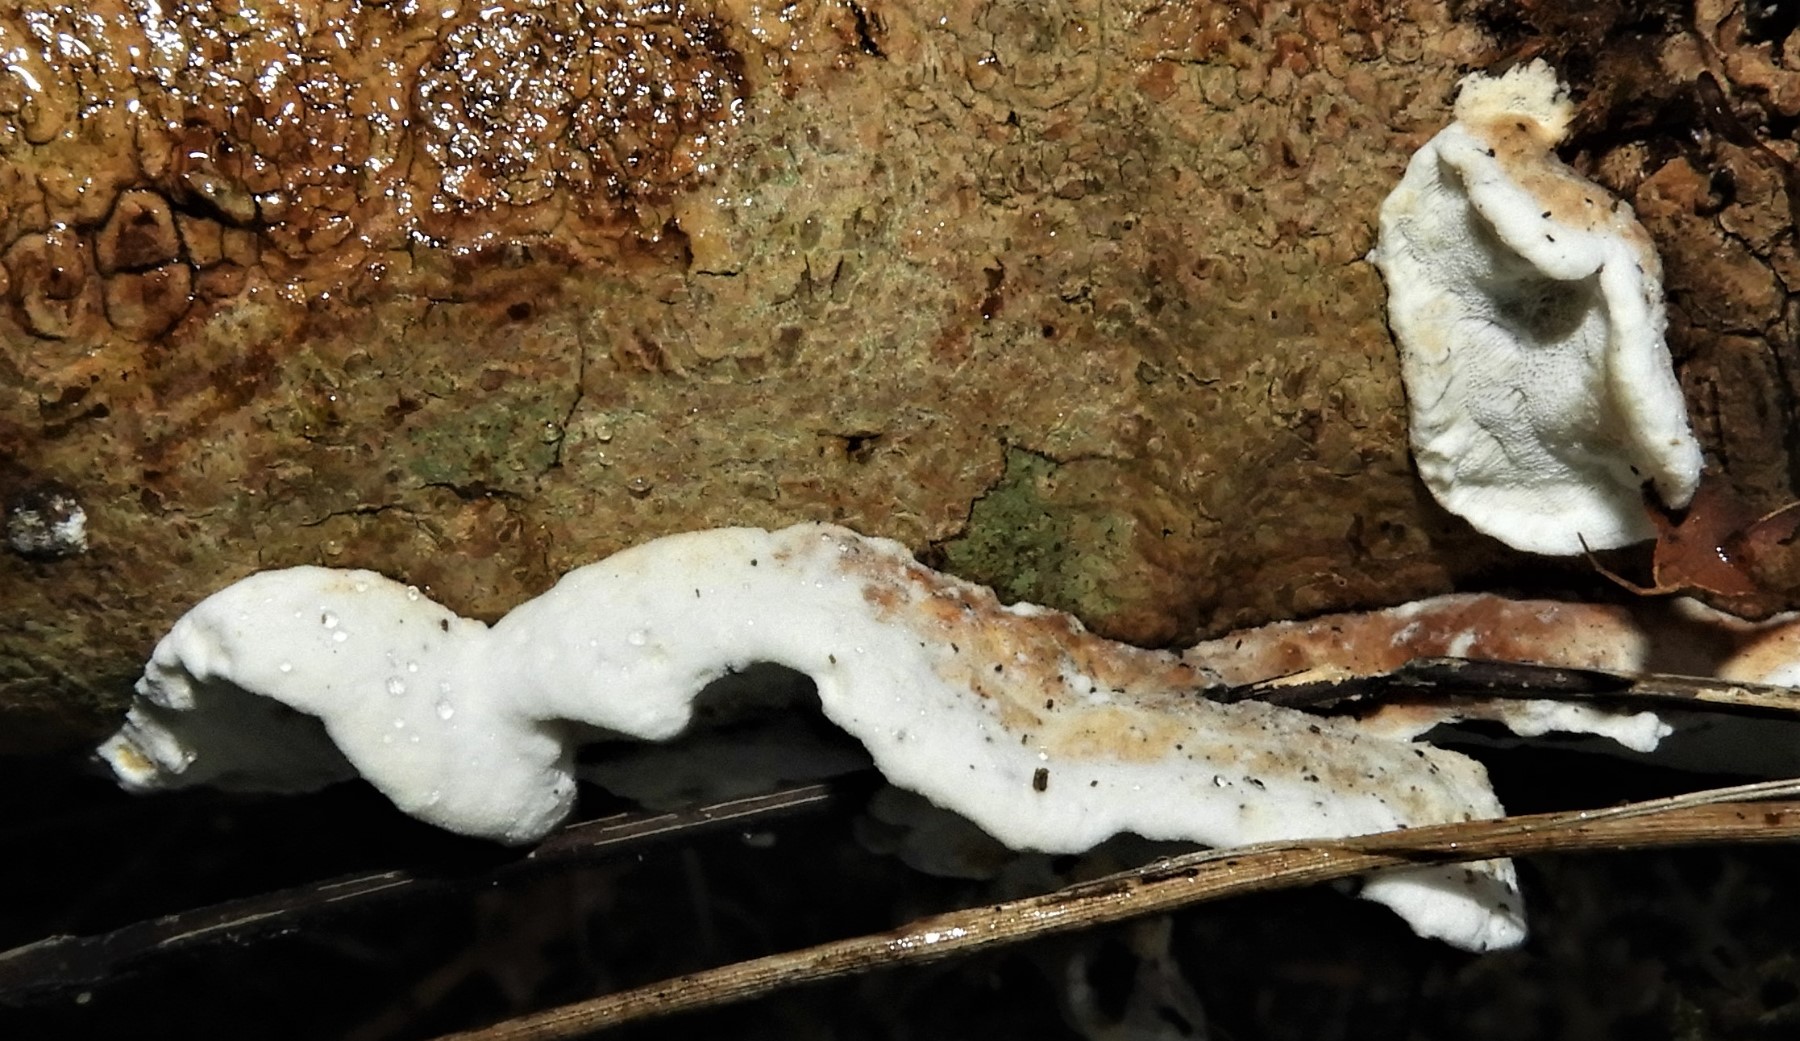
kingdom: Fungi
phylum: Basidiomycota
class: Agaricomycetes
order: Polyporales
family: Incrustoporiaceae
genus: Skeletocutis
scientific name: Skeletocutis nemoralis
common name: stor krystalporesvamp
